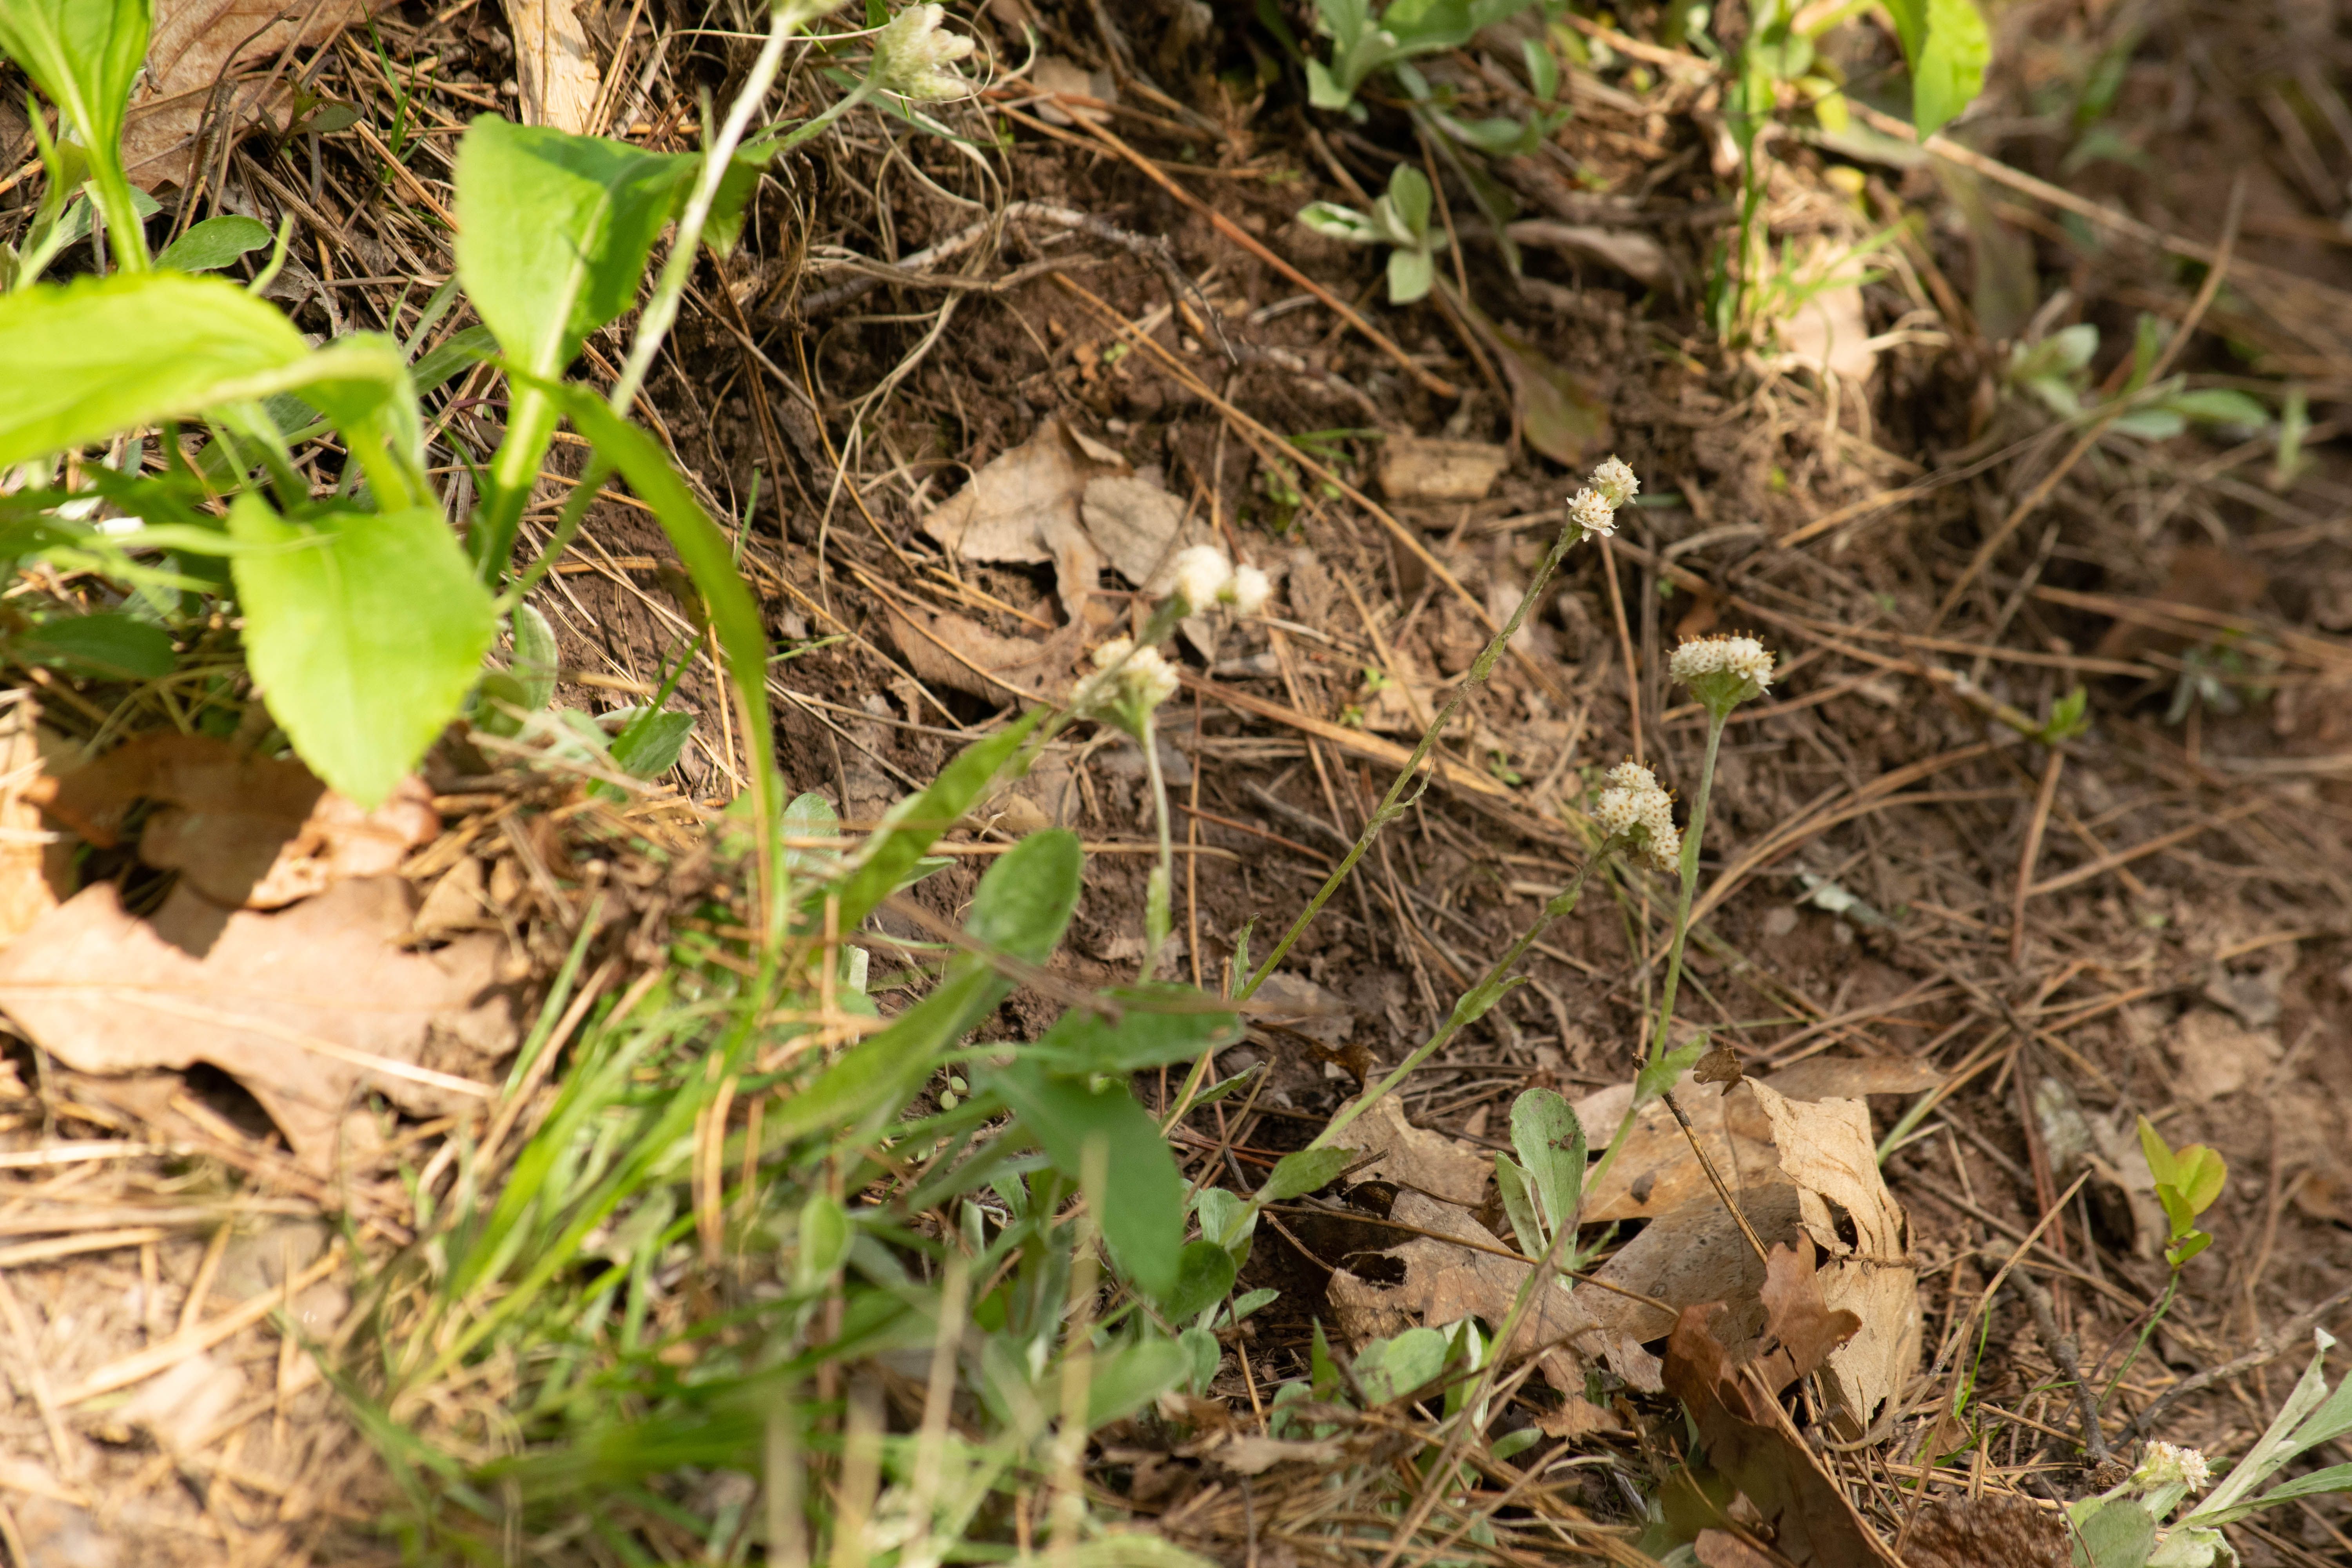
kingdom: Plantae
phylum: Tracheophyta
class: Magnoliopsida
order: Asterales
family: Asteraceae
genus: Antennaria
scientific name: Antennaria plantaginifolia
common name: Plantain-leaved pussytoes
